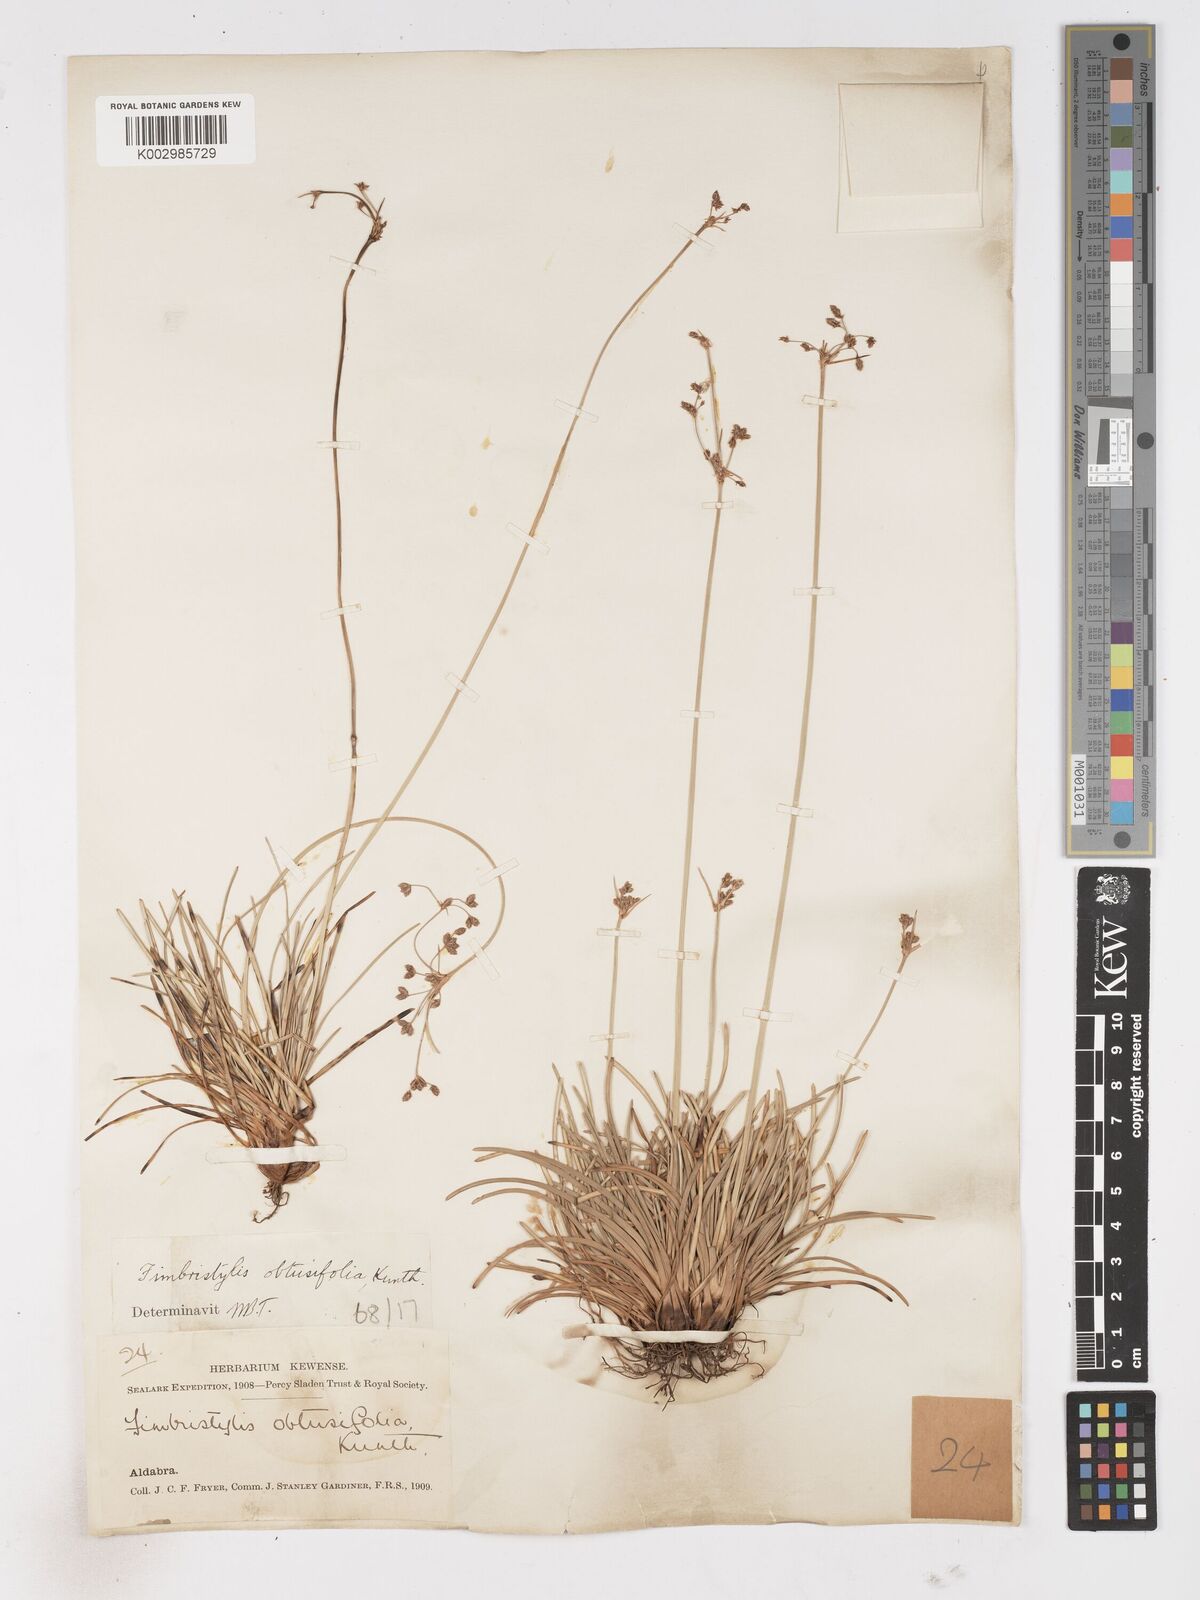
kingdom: Plantae
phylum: Tracheophyta
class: Liliopsida
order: Poales
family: Cyperaceae
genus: Fimbristylis
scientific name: Fimbristylis cymosa
